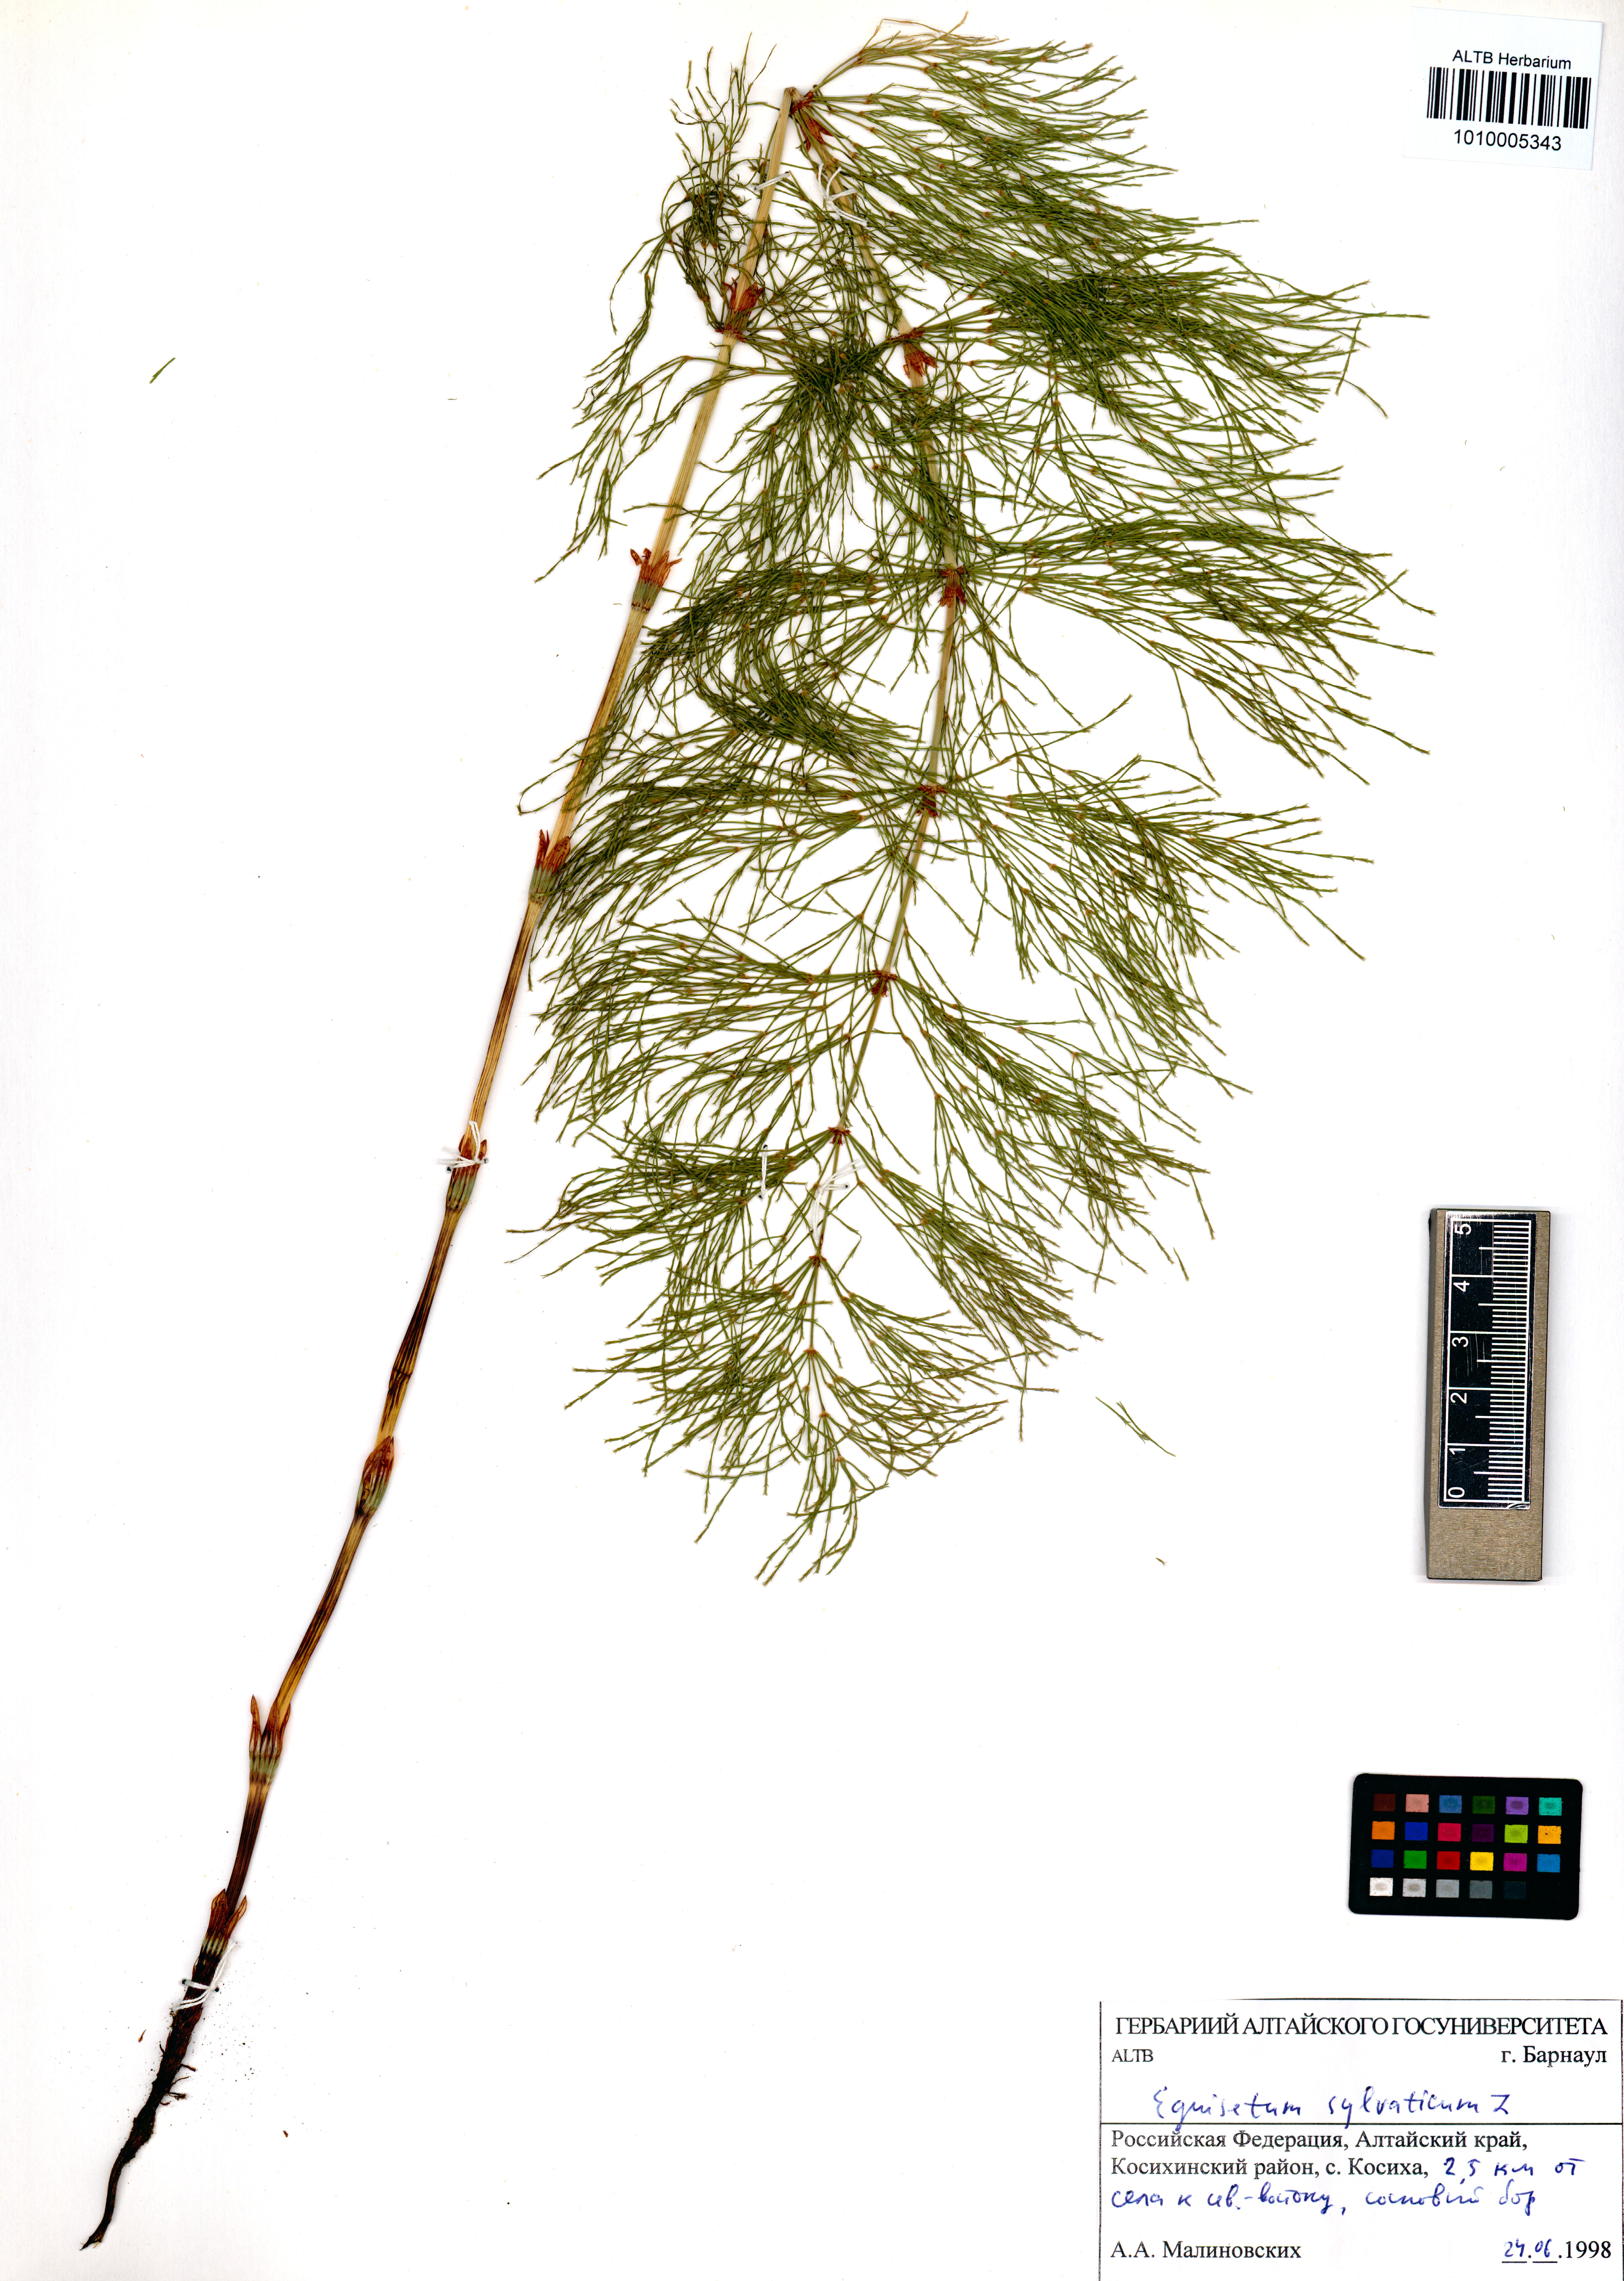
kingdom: Plantae
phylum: Tracheophyta
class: Polypodiopsida
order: Equisetales
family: Equisetaceae
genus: Equisetum
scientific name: Equisetum sylvaticum
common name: Wood horsetail
